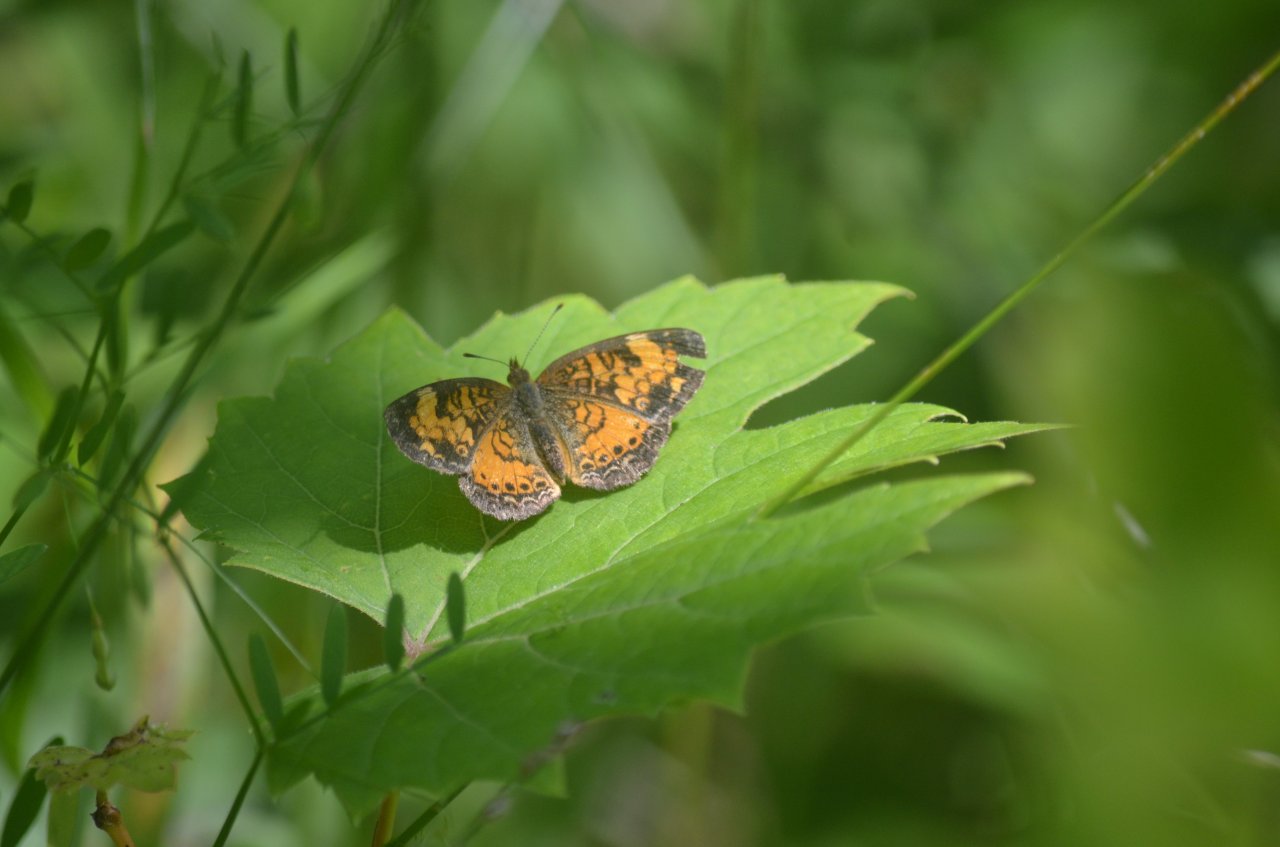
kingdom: Animalia
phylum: Arthropoda
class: Insecta
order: Lepidoptera
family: Nymphalidae
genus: Phyciodes
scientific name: Phyciodes tharos
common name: Northern Crescent
